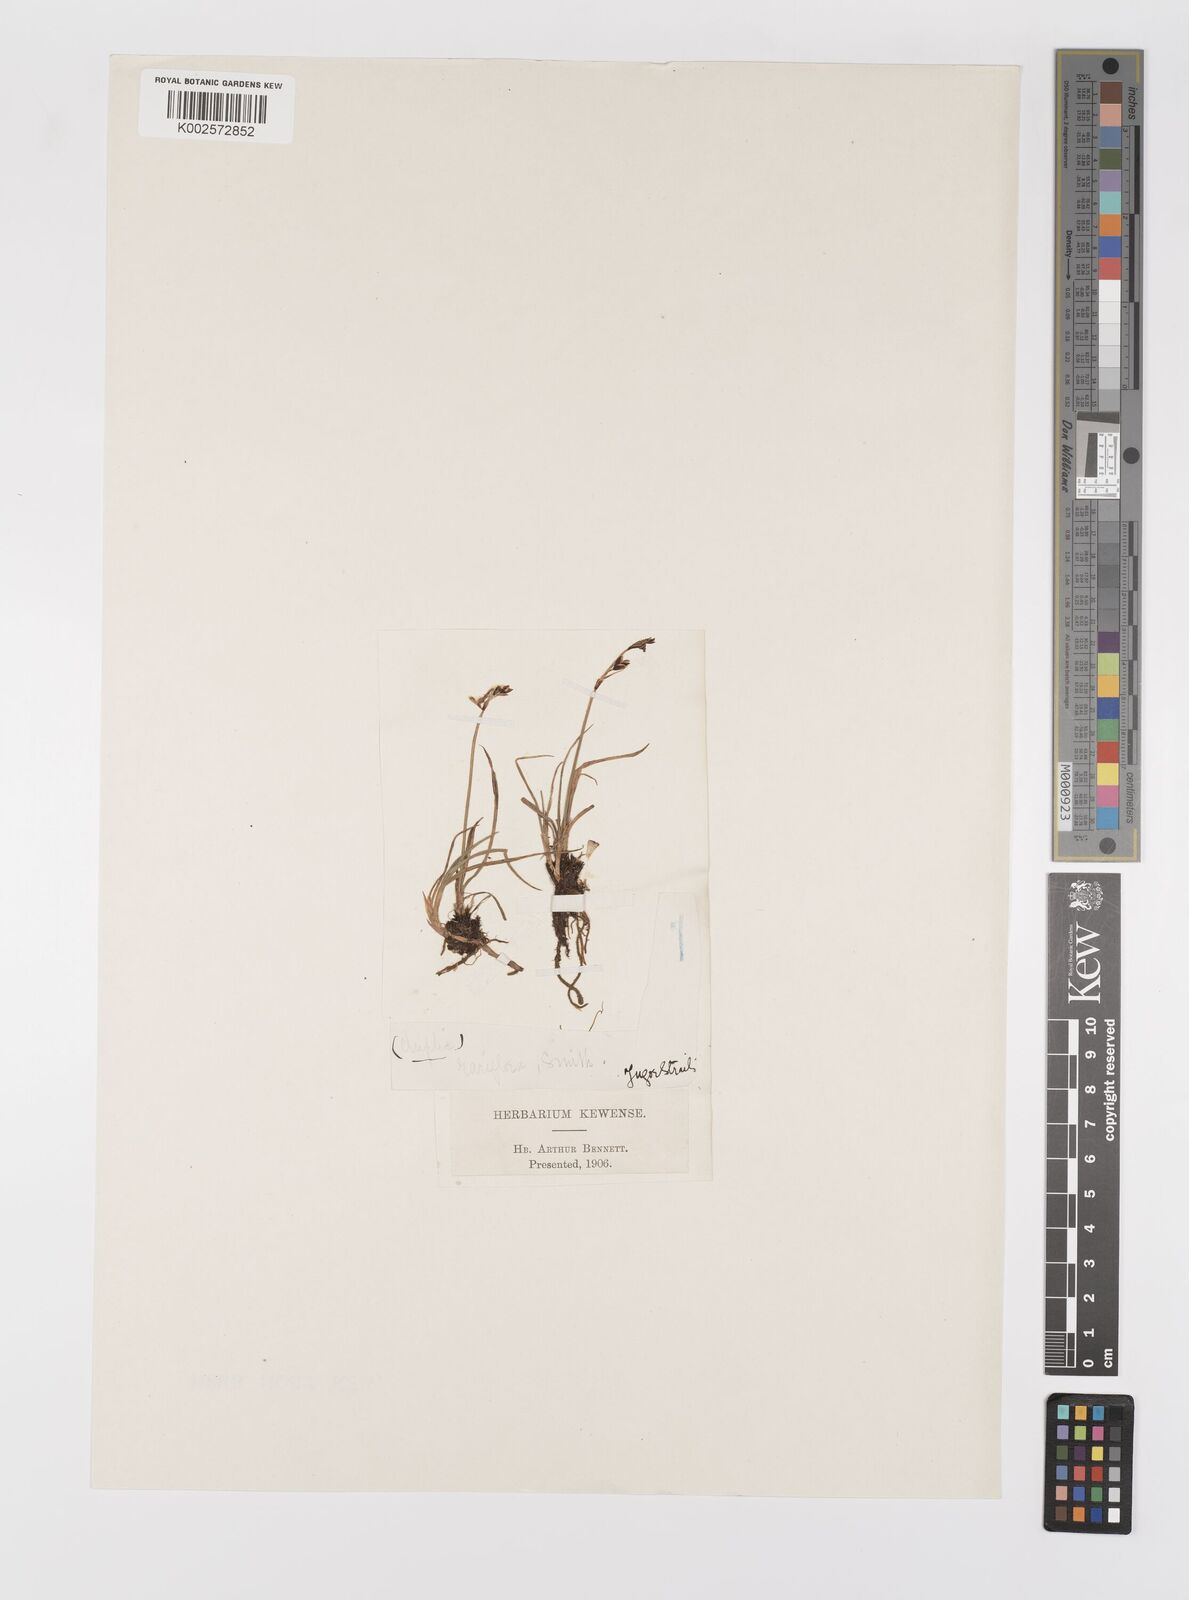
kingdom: Plantae
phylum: Tracheophyta
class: Liliopsida
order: Poales
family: Cyperaceae
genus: Carex
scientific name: Carex rariflora
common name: Loose-flowered alpine sedge
